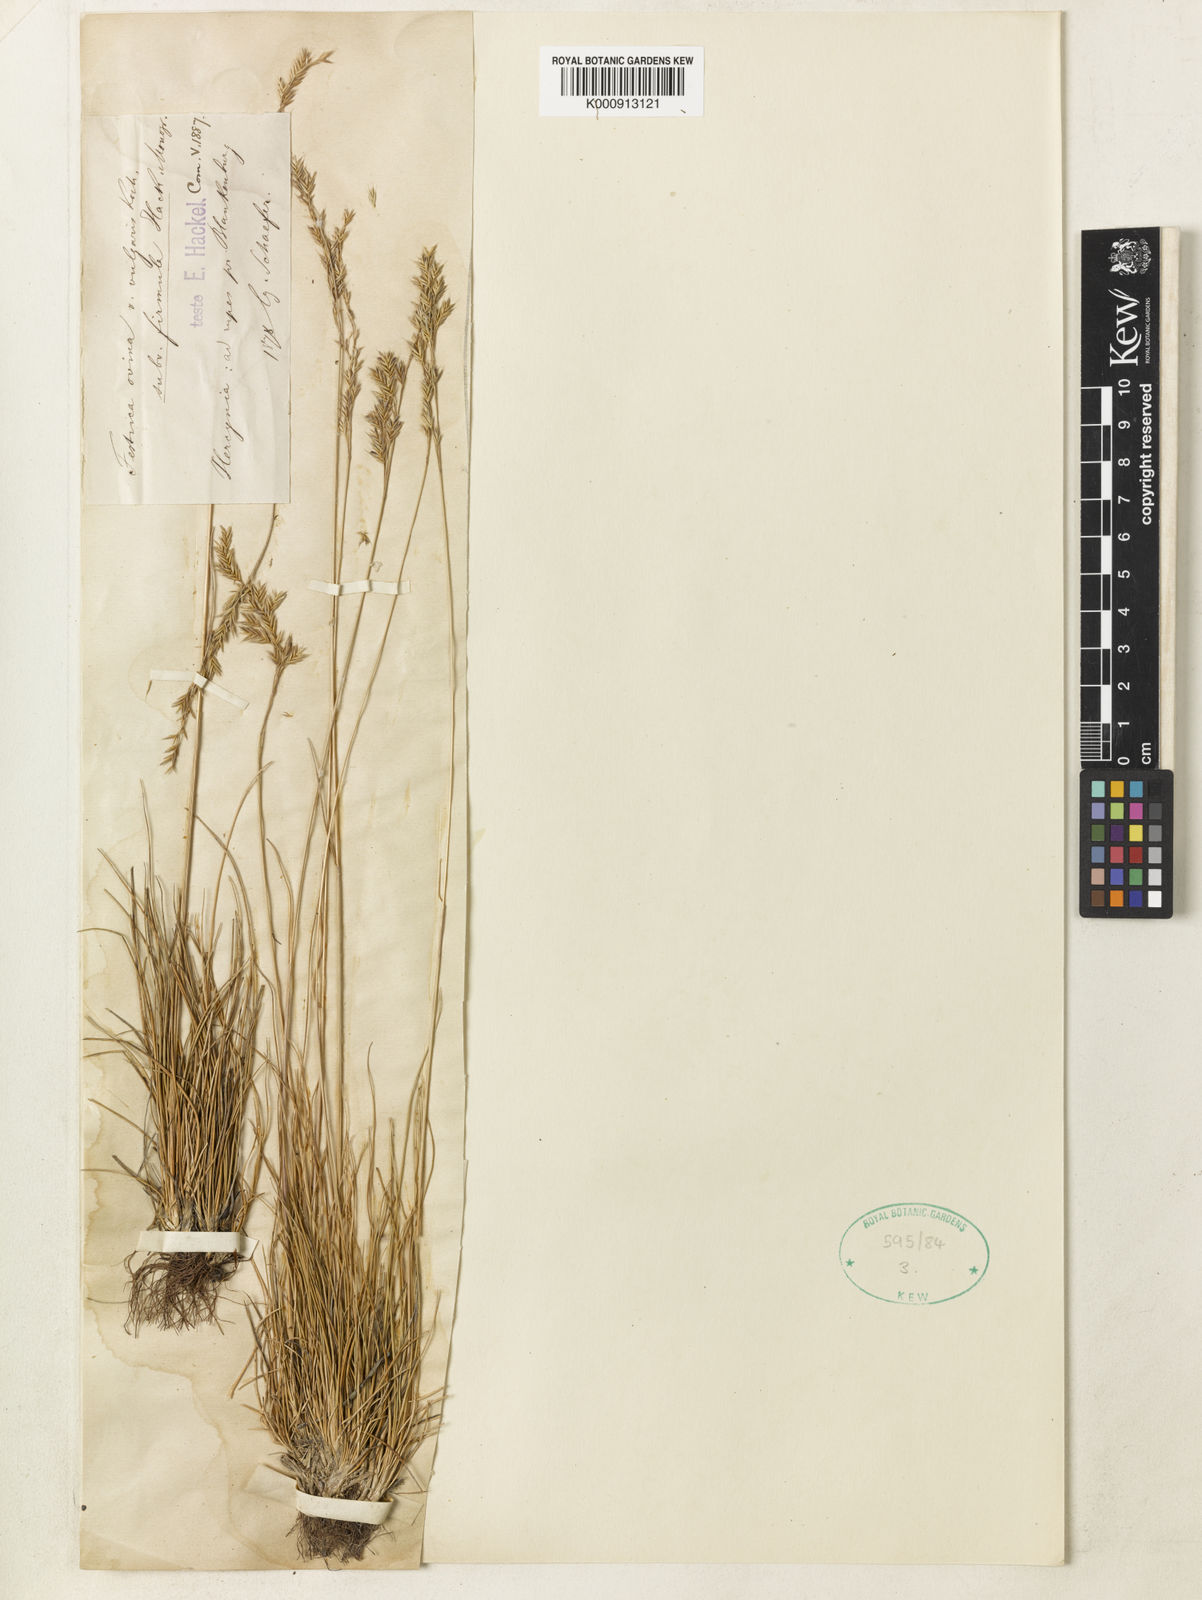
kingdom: Plantae
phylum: Tracheophyta
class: Liliopsida
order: Poales
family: Poaceae
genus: Festuca
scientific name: Festuca guestfalica
